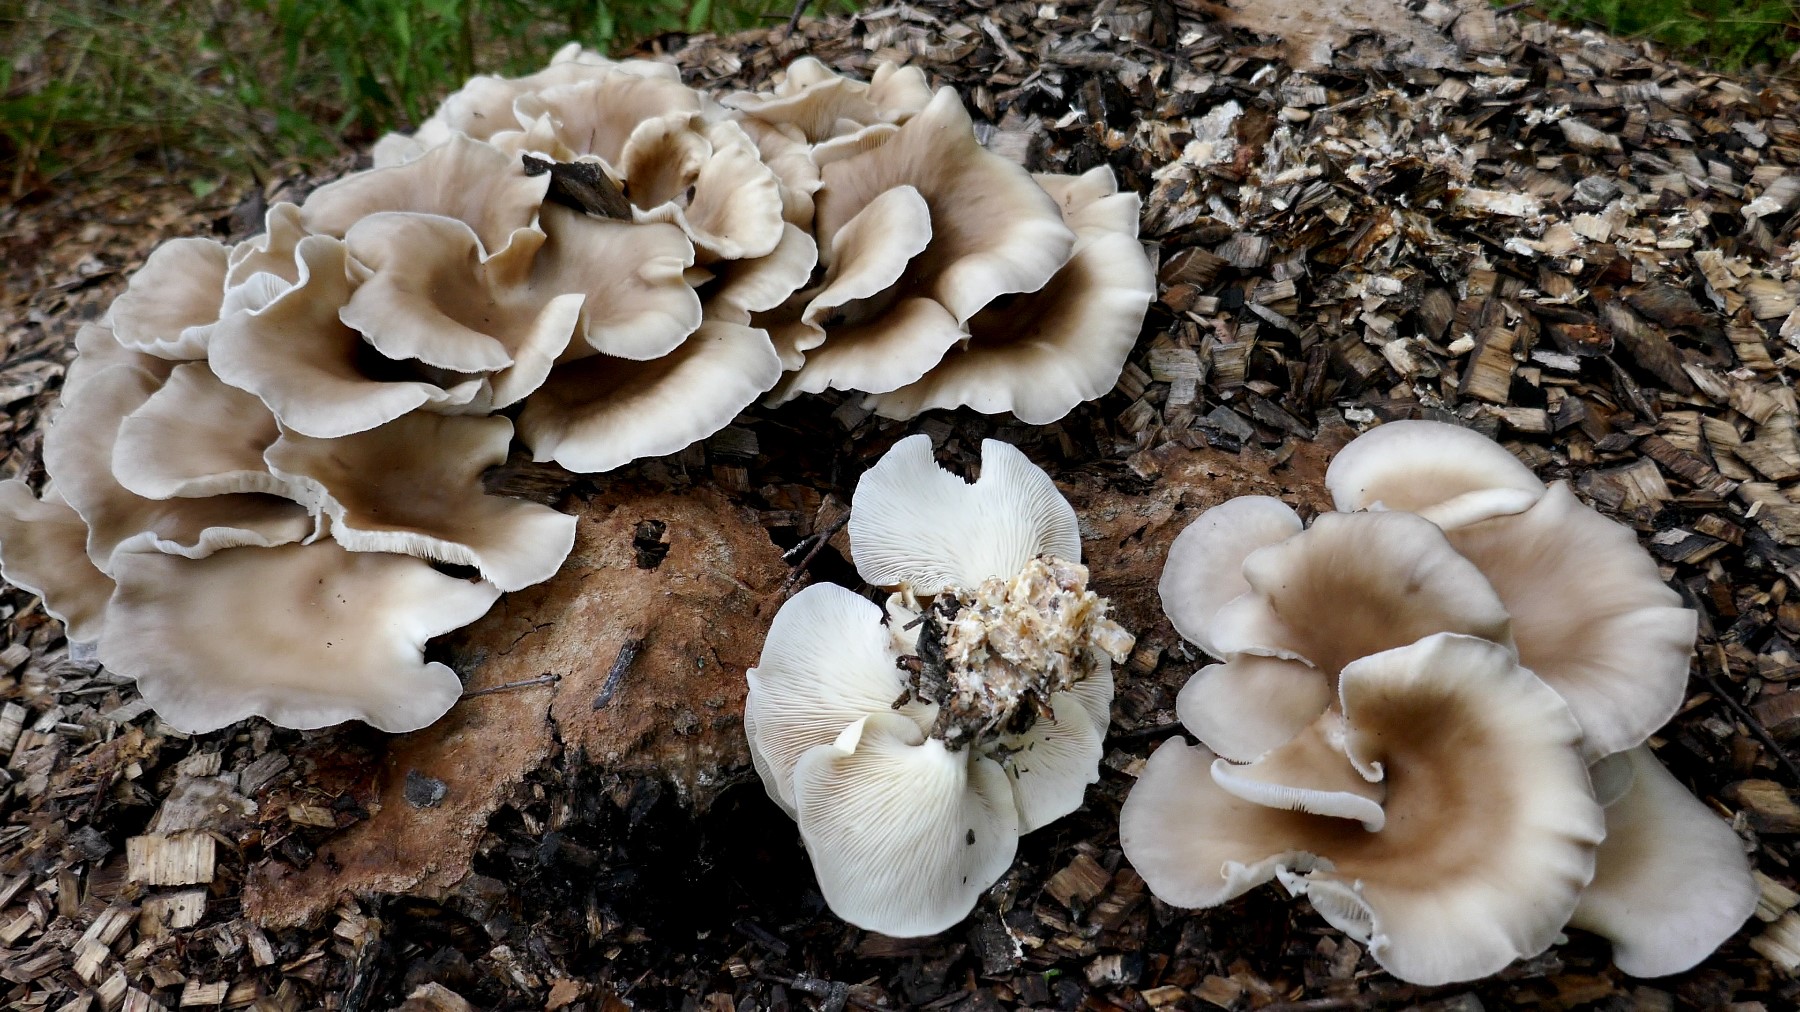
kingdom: Fungi
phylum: Basidiomycota
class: Agaricomycetes
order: Agaricales
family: Pleurotaceae
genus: Pleurotus
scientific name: Pleurotus pulmonarius
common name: sommer-østershat
